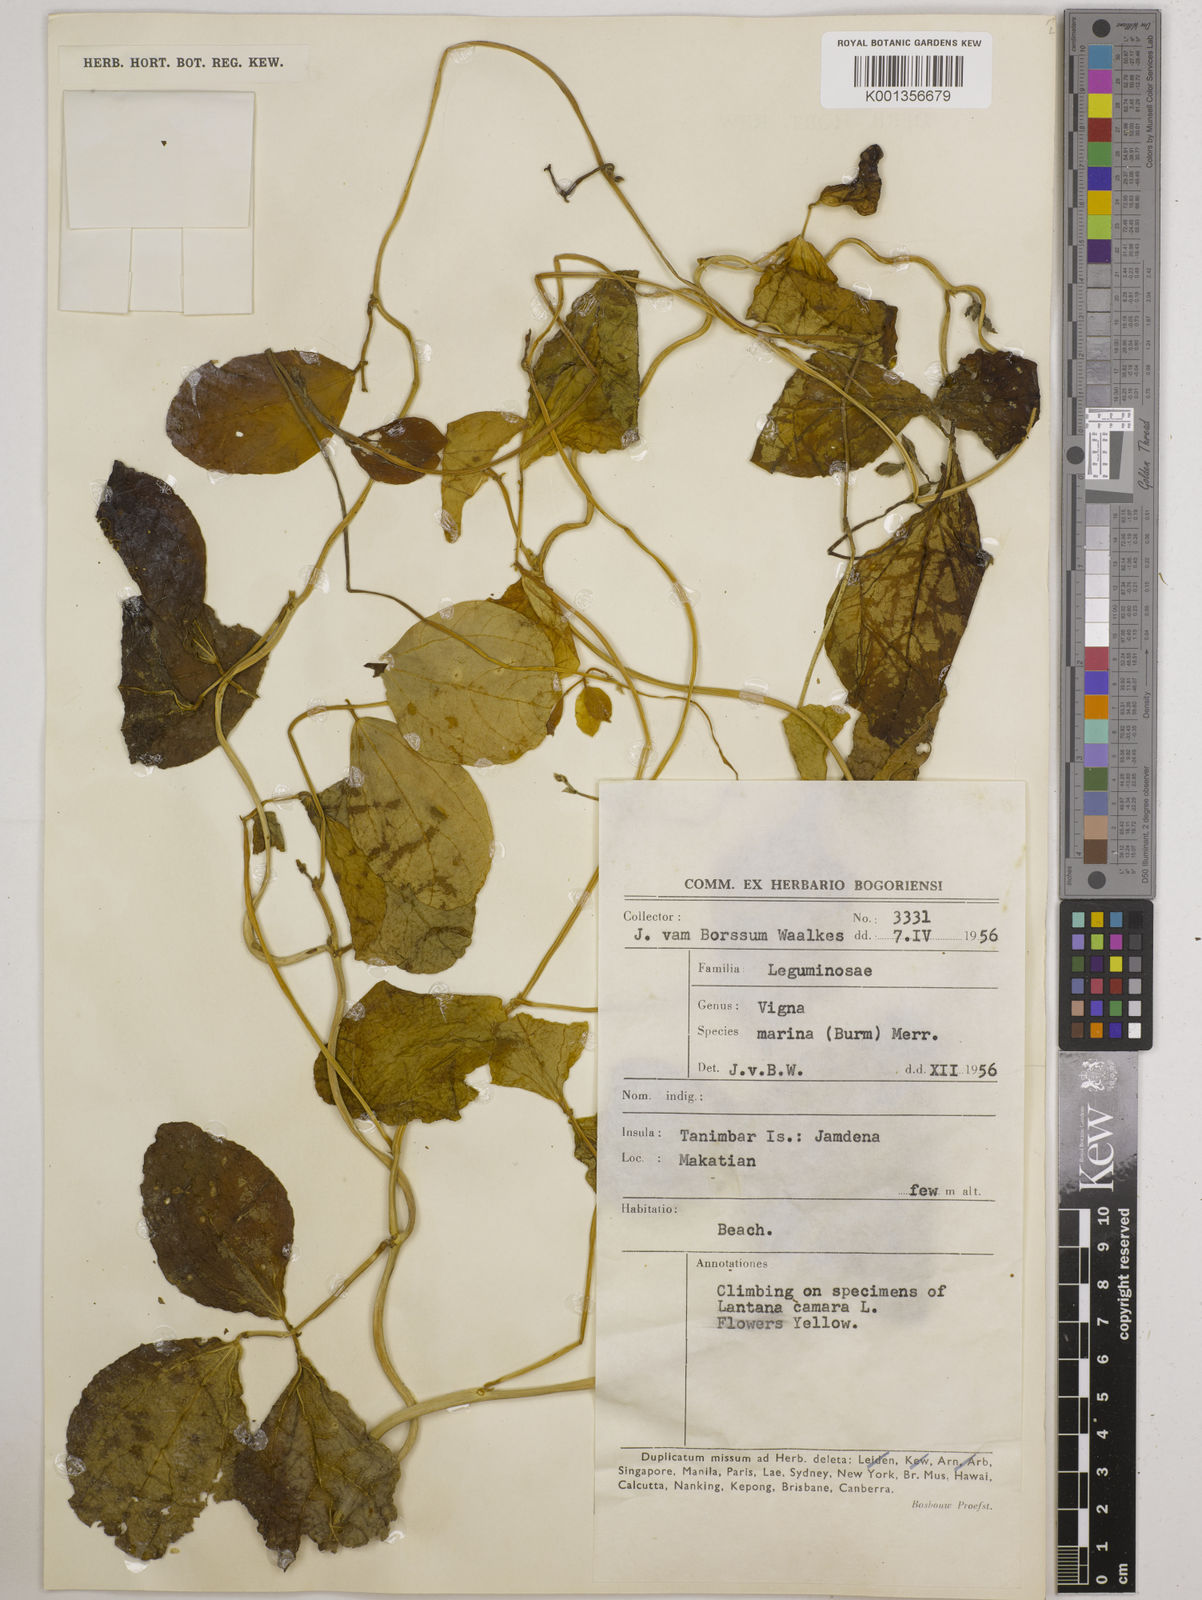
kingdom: Plantae
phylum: Tracheophyta
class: Magnoliopsida
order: Fabales
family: Fabaceae
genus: Vigna
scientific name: Vigna marina
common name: Dune-bean
